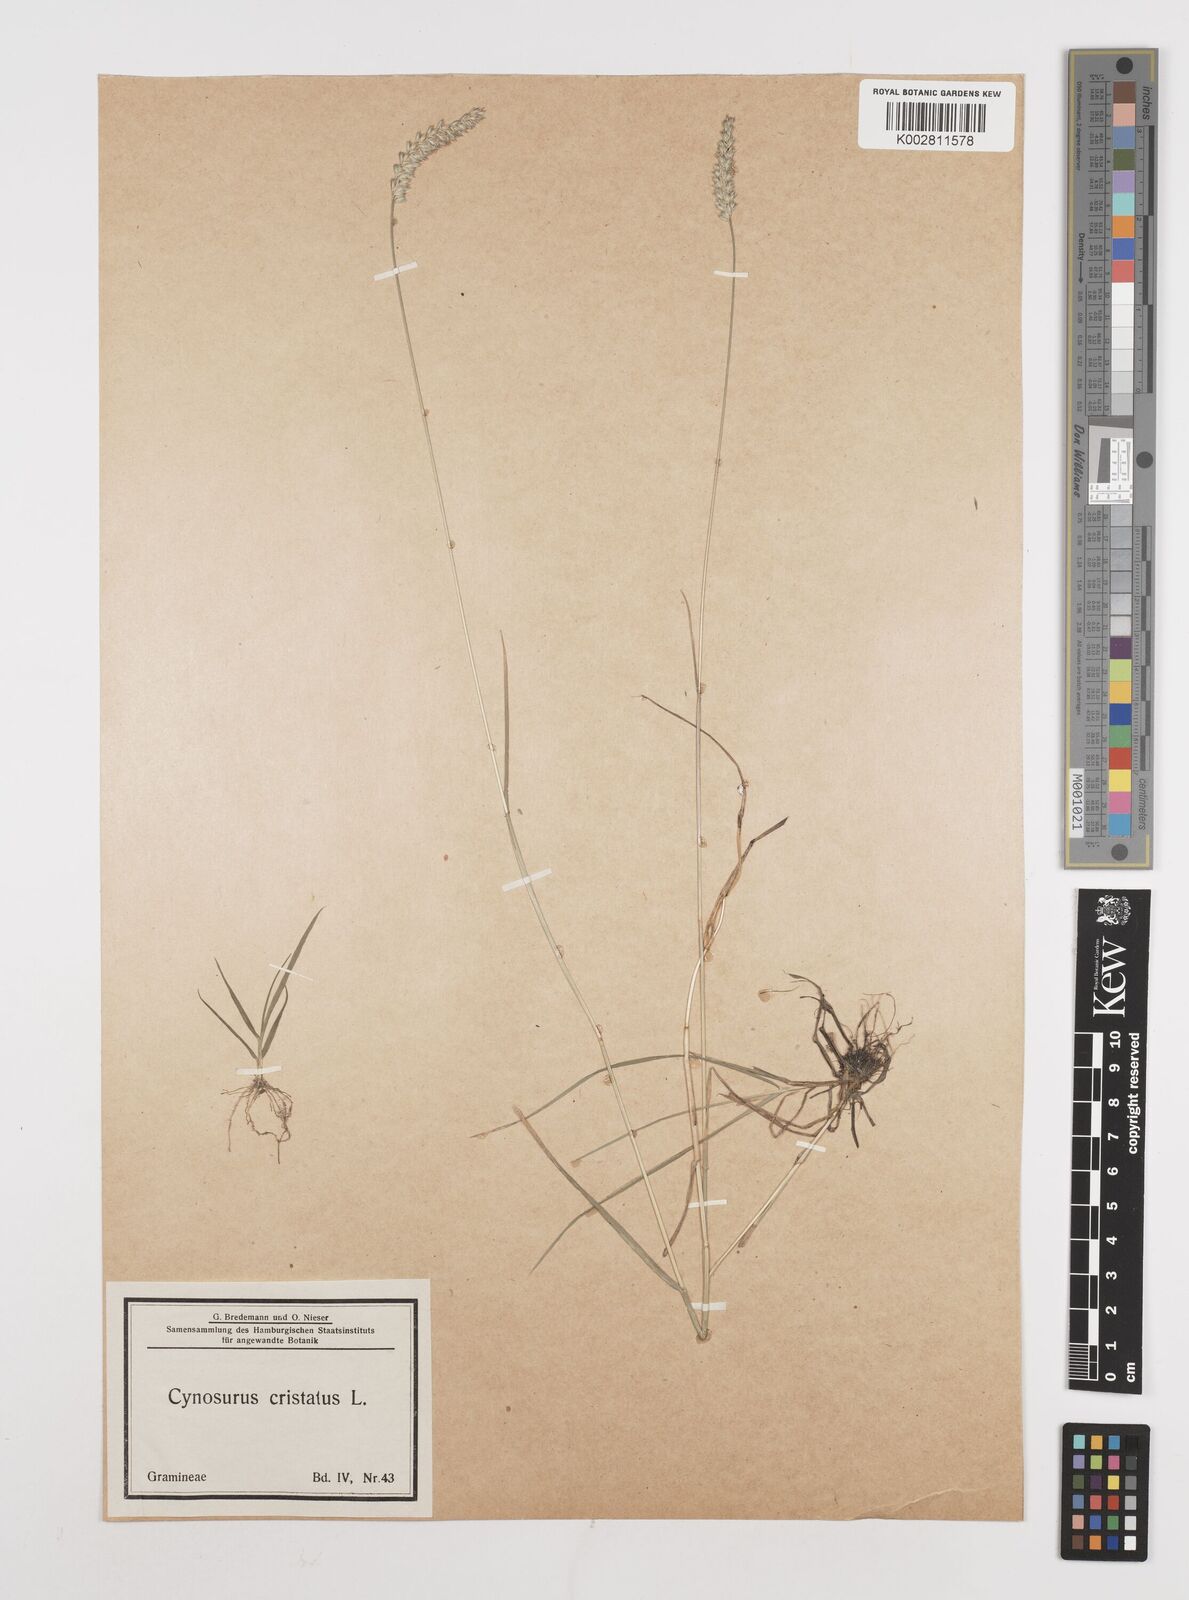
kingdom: Plantae
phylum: Tracheophyta
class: Liliopsida
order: Poales
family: Poaceae
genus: Cynosurus
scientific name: Cynosurus cristatus
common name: Crested dog's-tail
